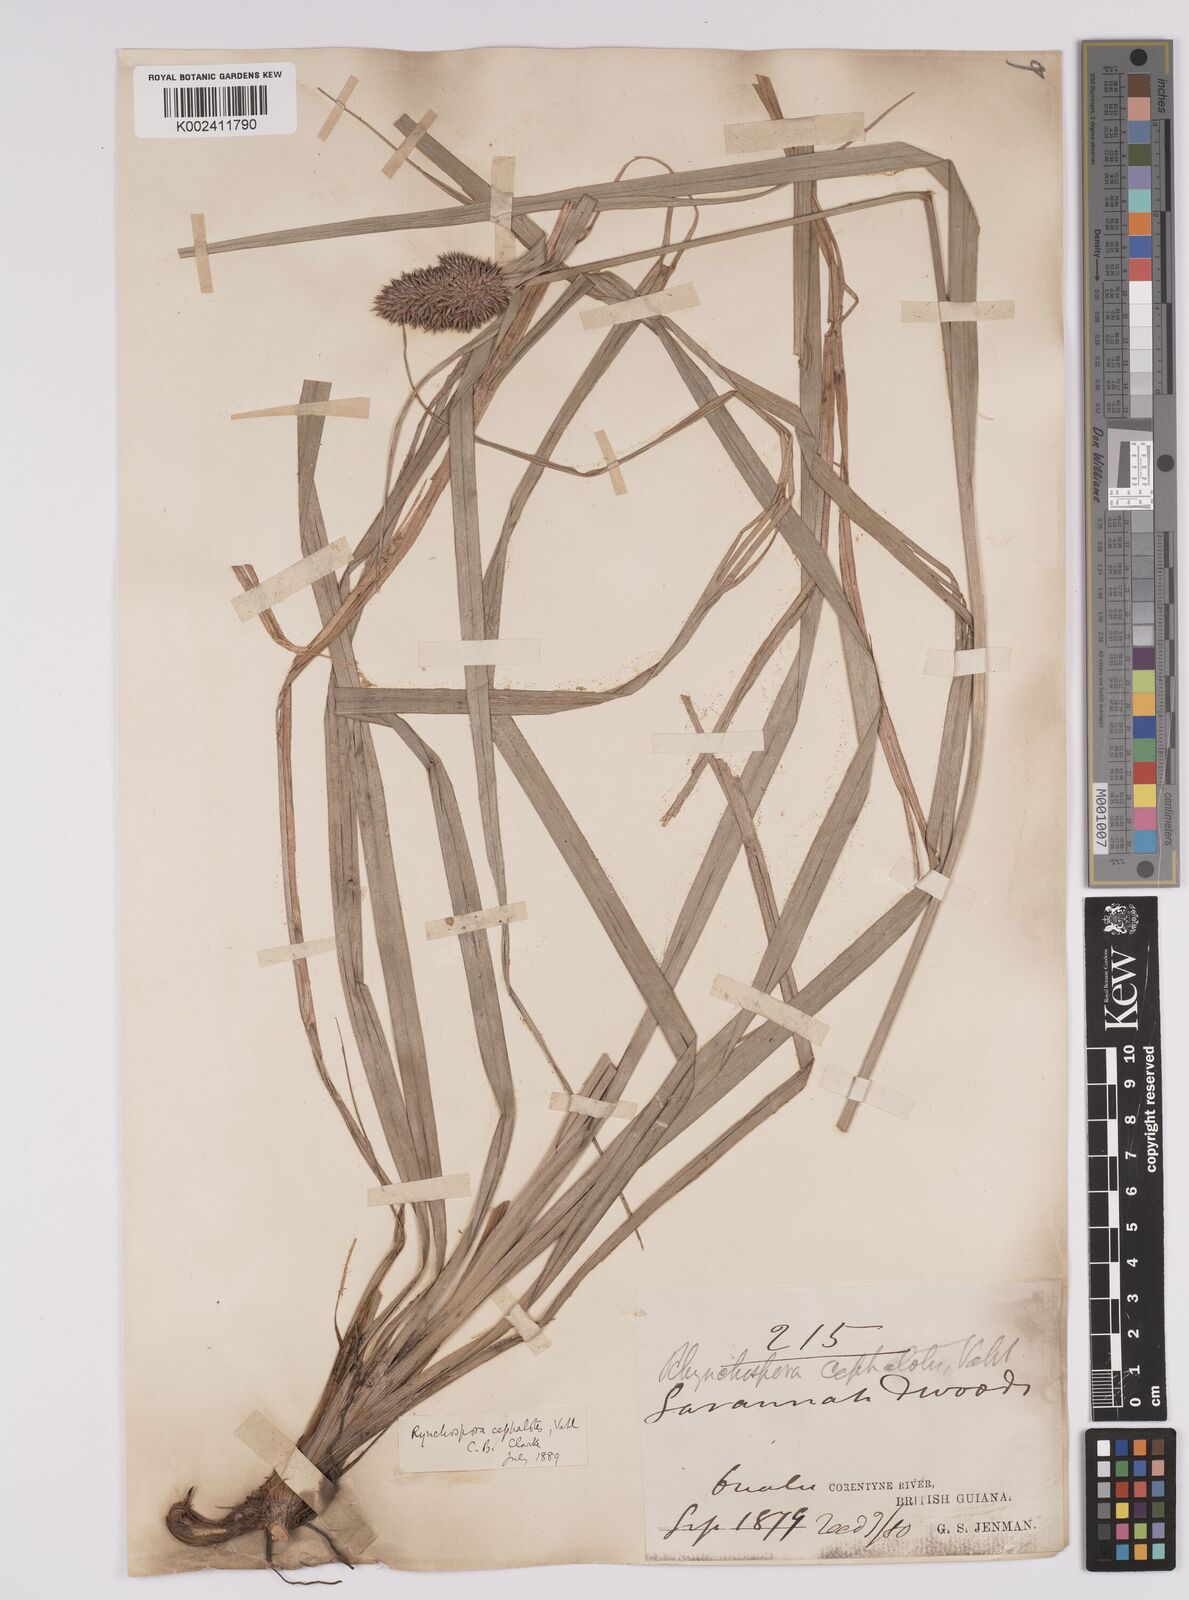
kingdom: Plantae
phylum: Tracheophyta
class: Liliopsida
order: Poales
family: Cyperaceae
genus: Rhynchospora
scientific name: Rhynchospora cephalotes
